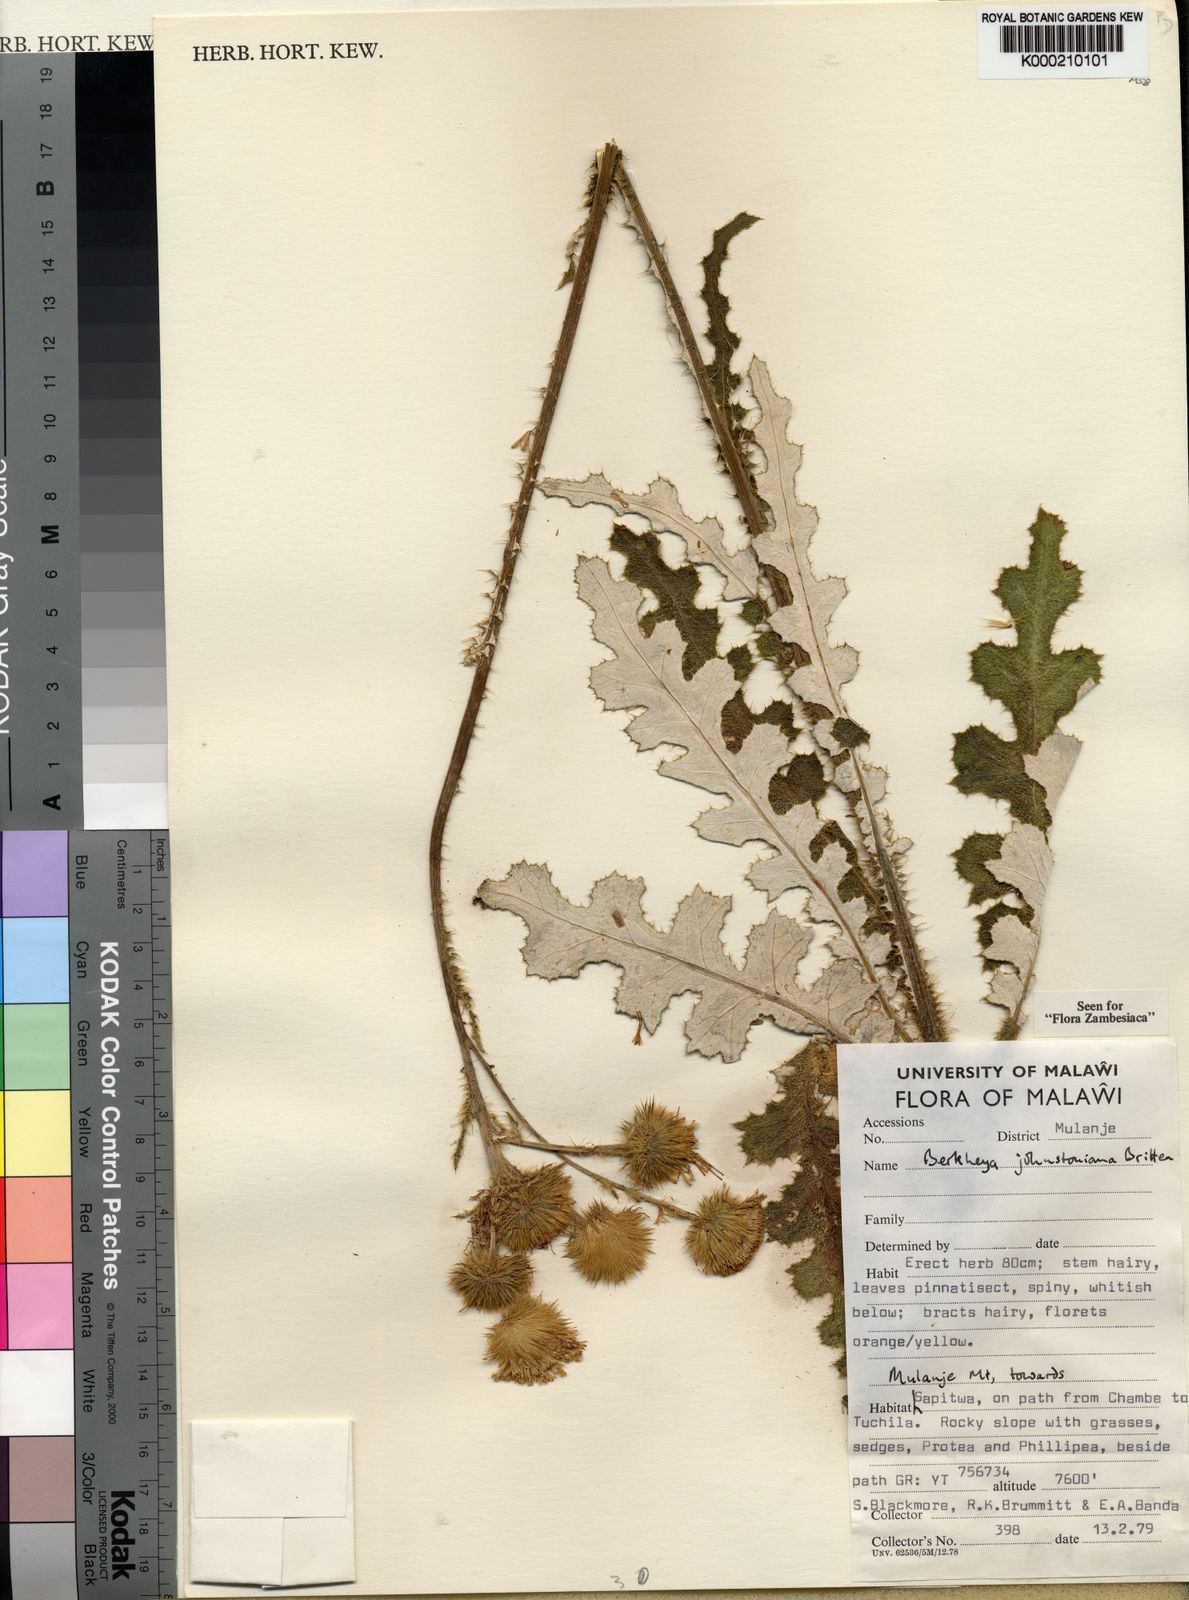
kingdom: Plantae
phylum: Tracheophyta
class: Magnoliopsida
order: Asterales
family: Asteraceae
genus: Berkheya
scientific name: Berkheya johnstoniana
